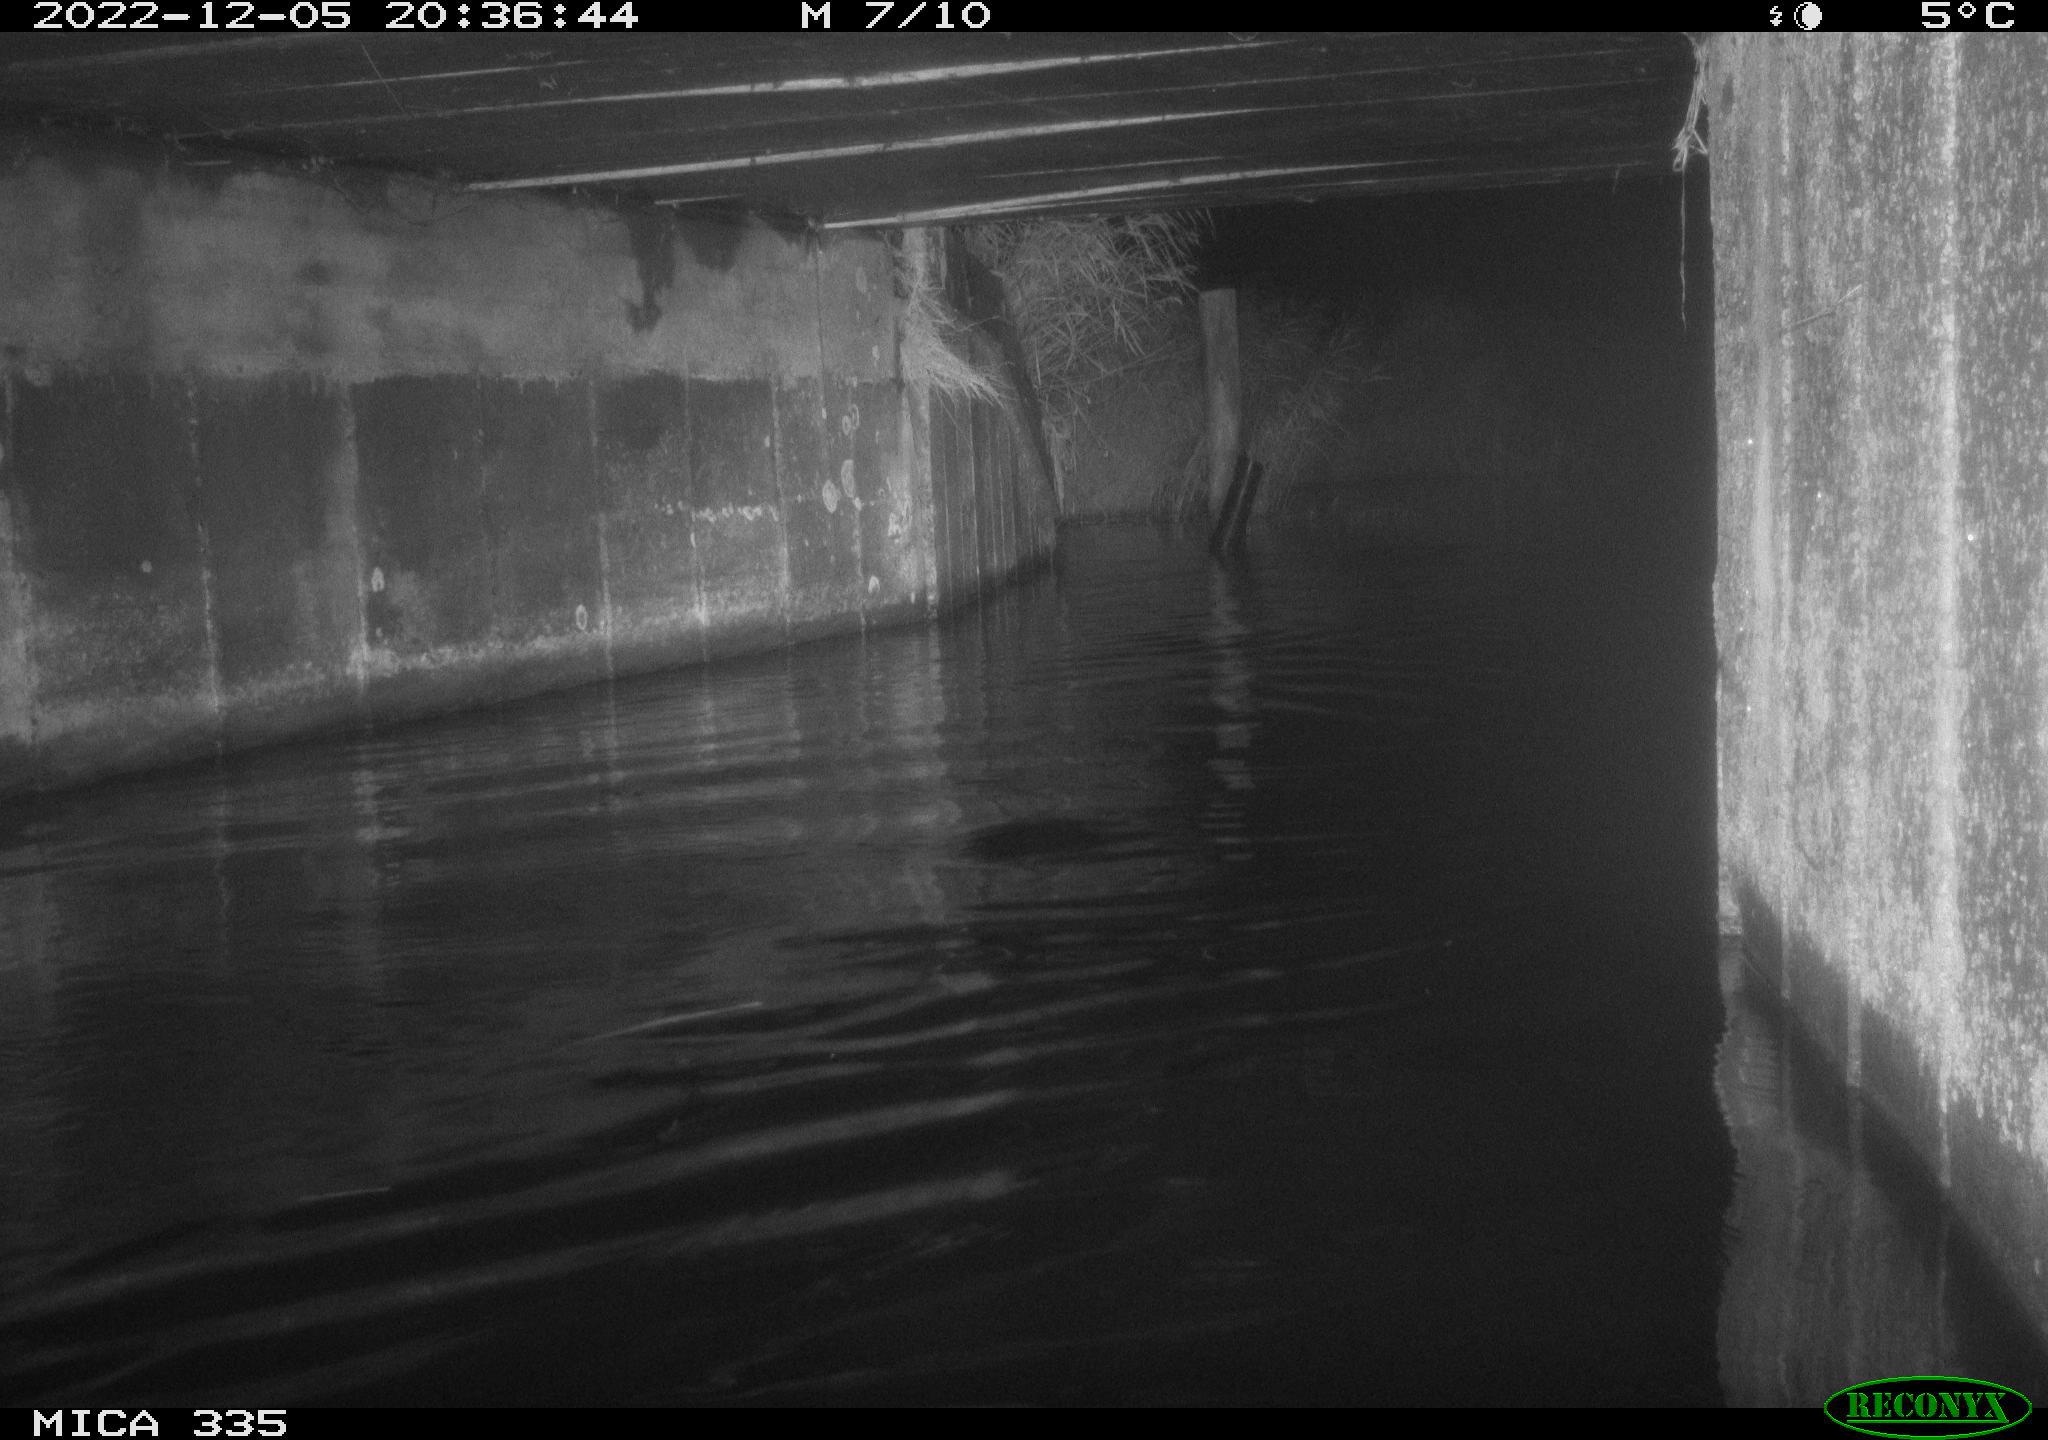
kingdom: Animalia
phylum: Chordata
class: Aves
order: Anseriformes
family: Anatidae
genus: Cygnus
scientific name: Cygnus olor
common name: Mute swan
